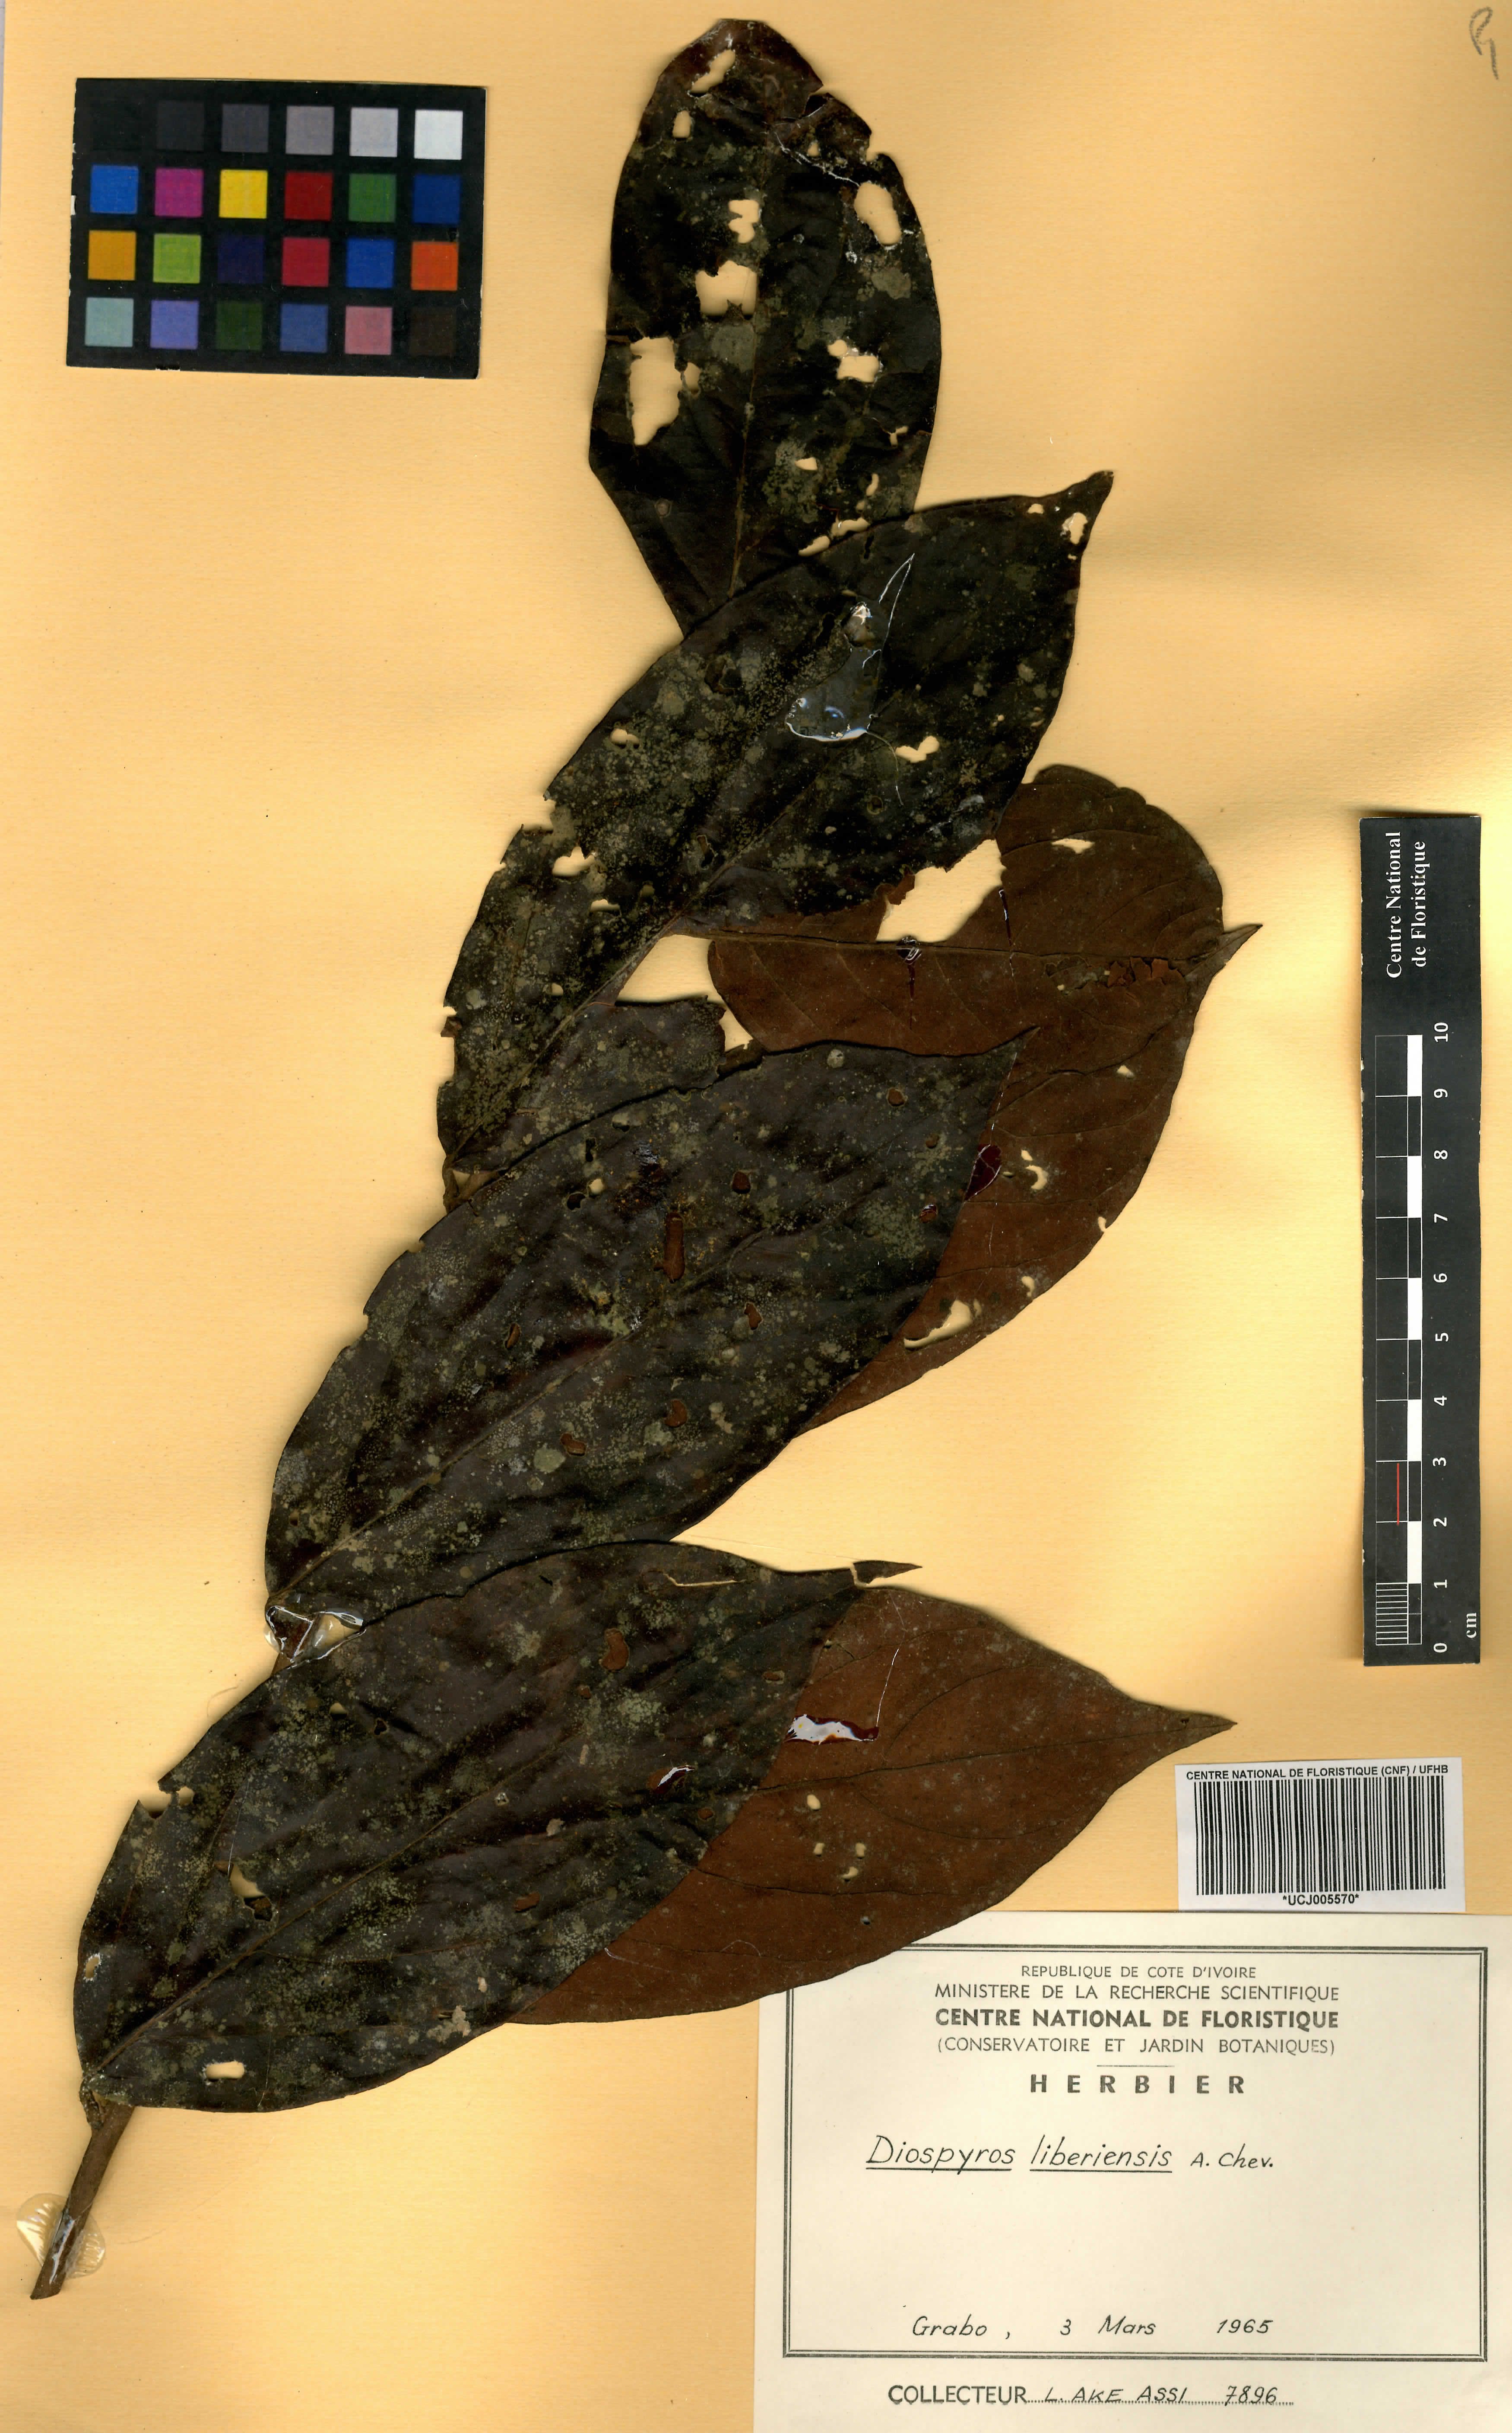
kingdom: Plantae
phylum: Tracheophyta
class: Magnoliopsida
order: Ericales
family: Ebenaceae
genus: Diospyros
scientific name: Diospyros liberiensis
